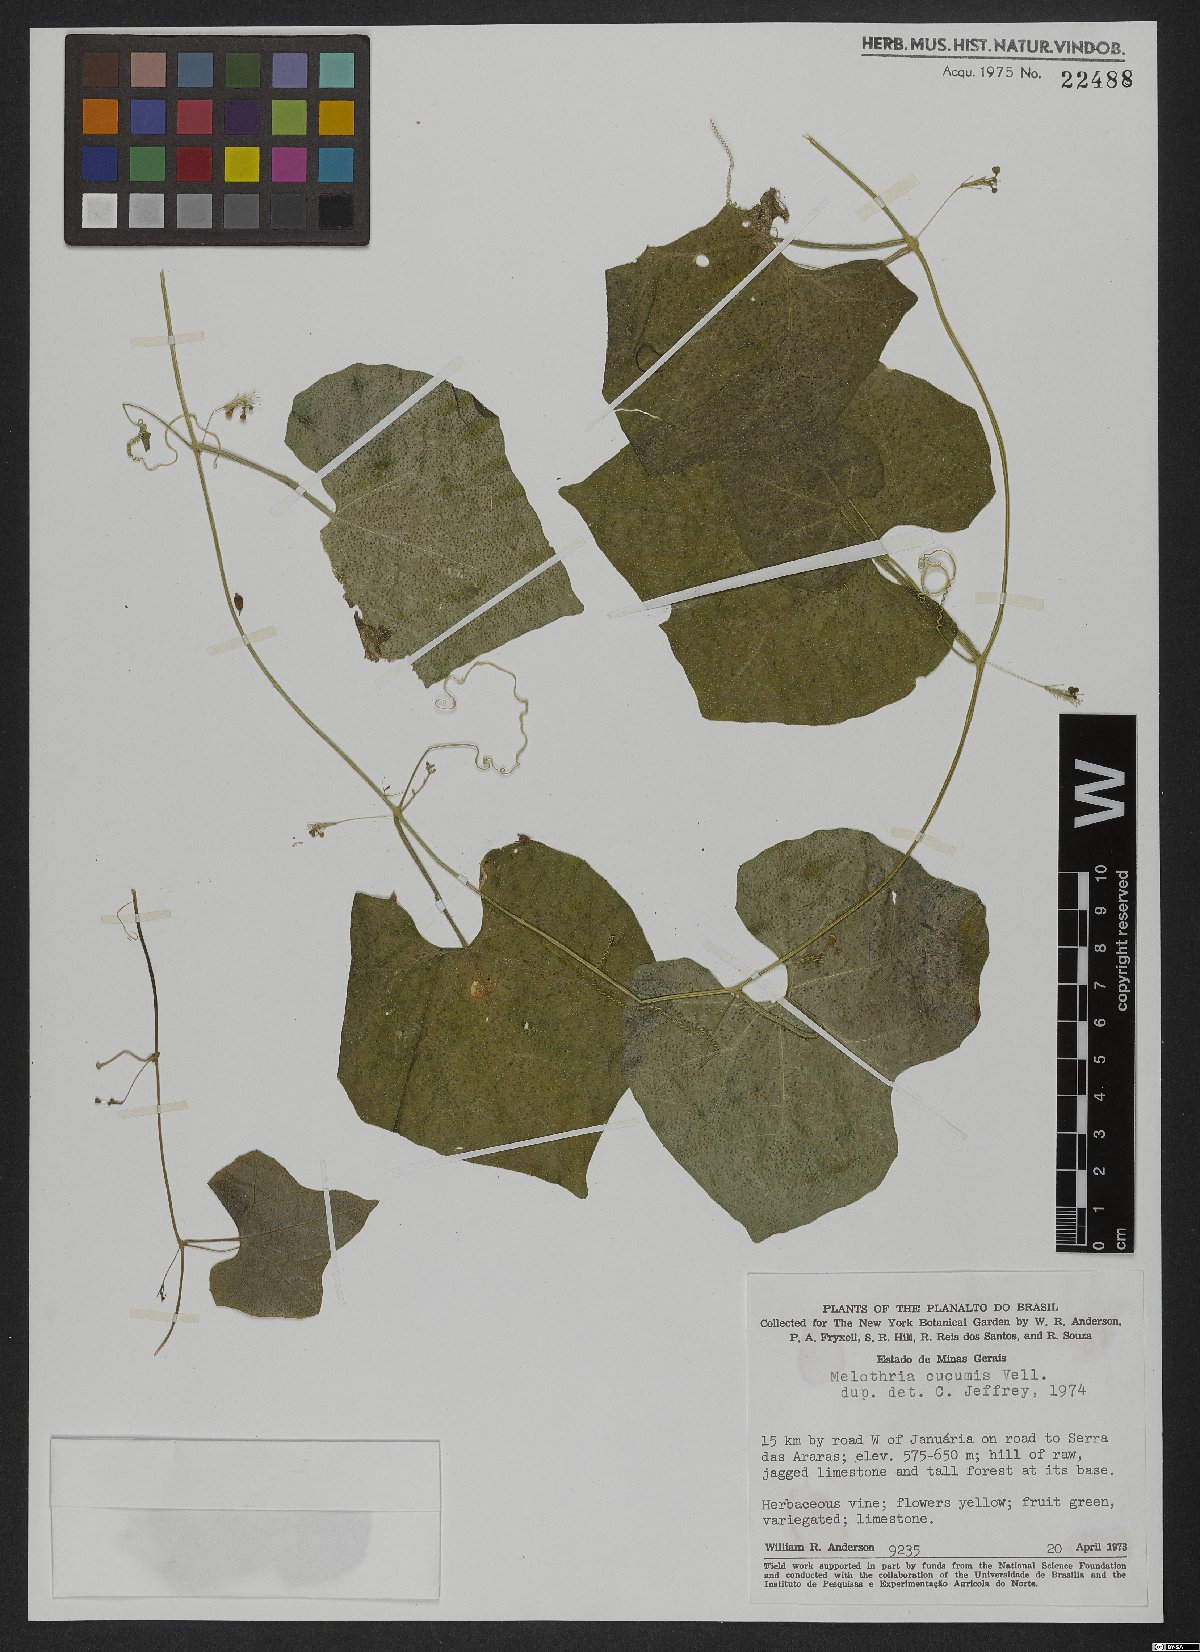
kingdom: Plantae
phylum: Tracheophyta
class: Magnoliopsida
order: Cucurbitales
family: Cucurbitaceae
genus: Melothria
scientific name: Melothria cucumis
